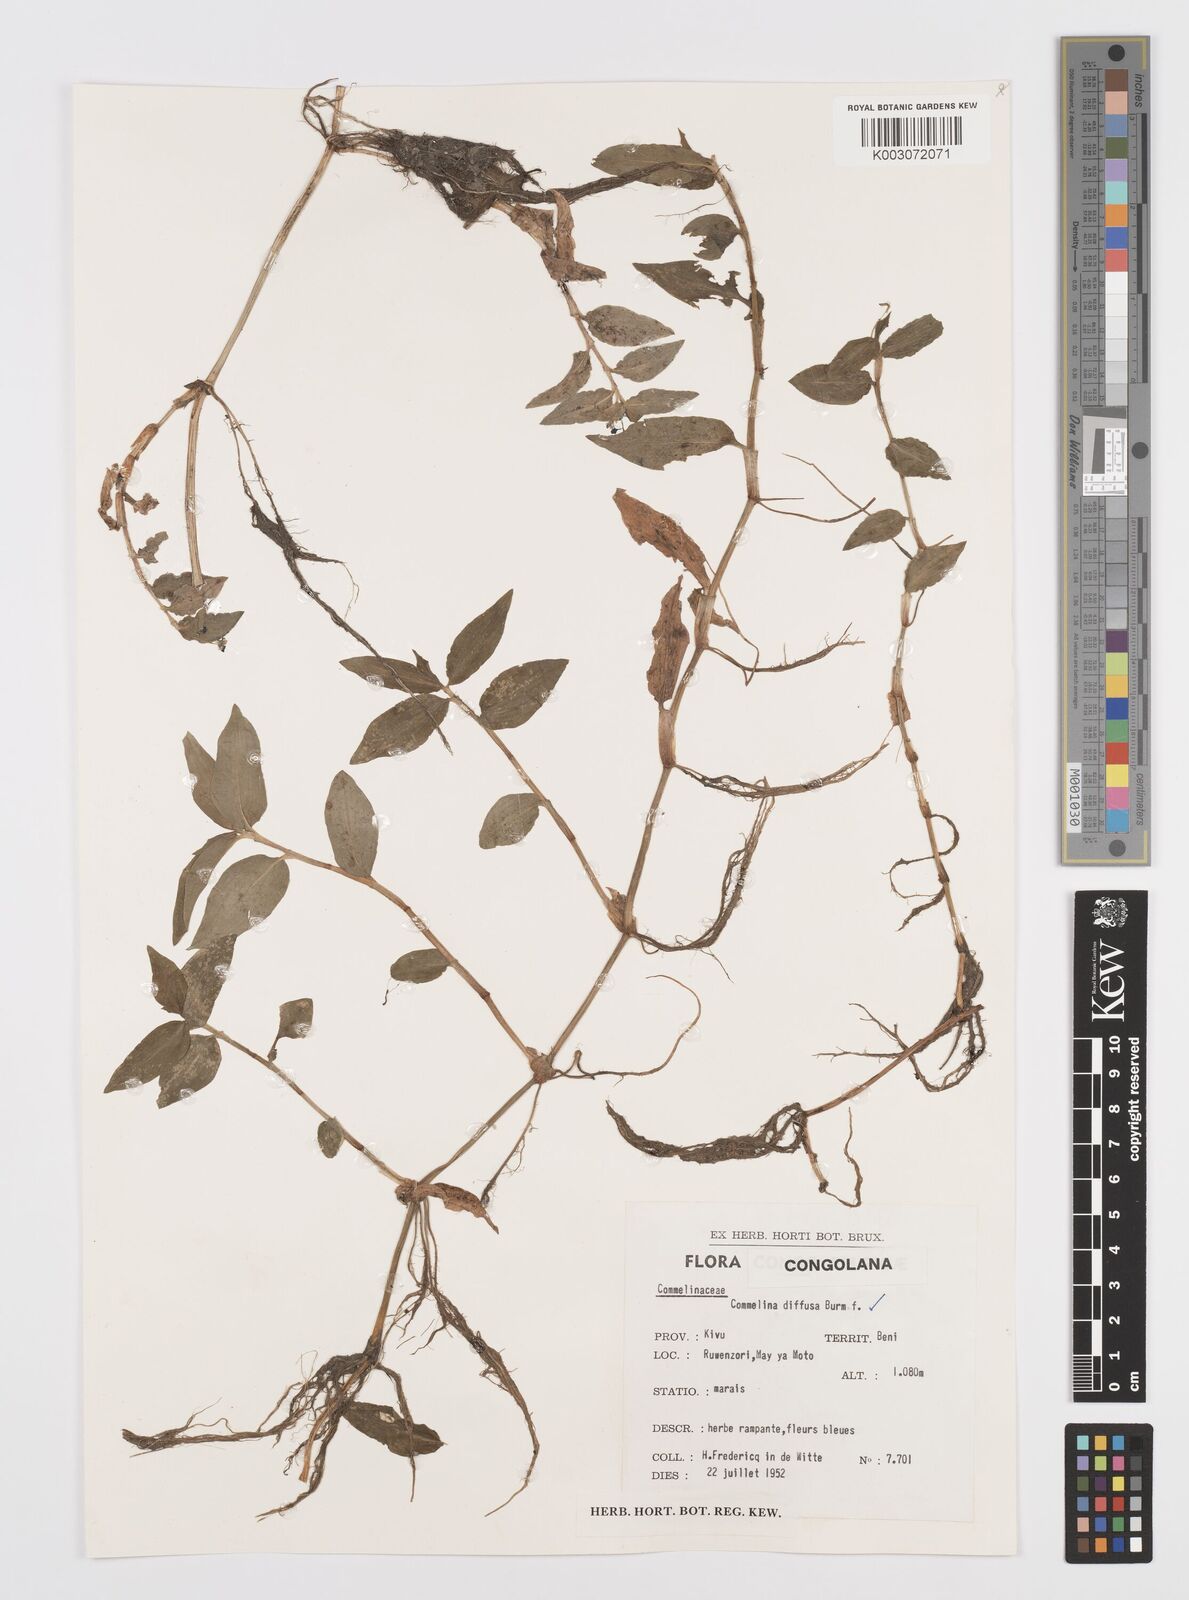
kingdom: Plantae
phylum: Tracheophyta
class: Liliopsida
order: Commelinales
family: Commelinaceae
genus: Commelina
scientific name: Commelina diffusa
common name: Climbing dayflower
